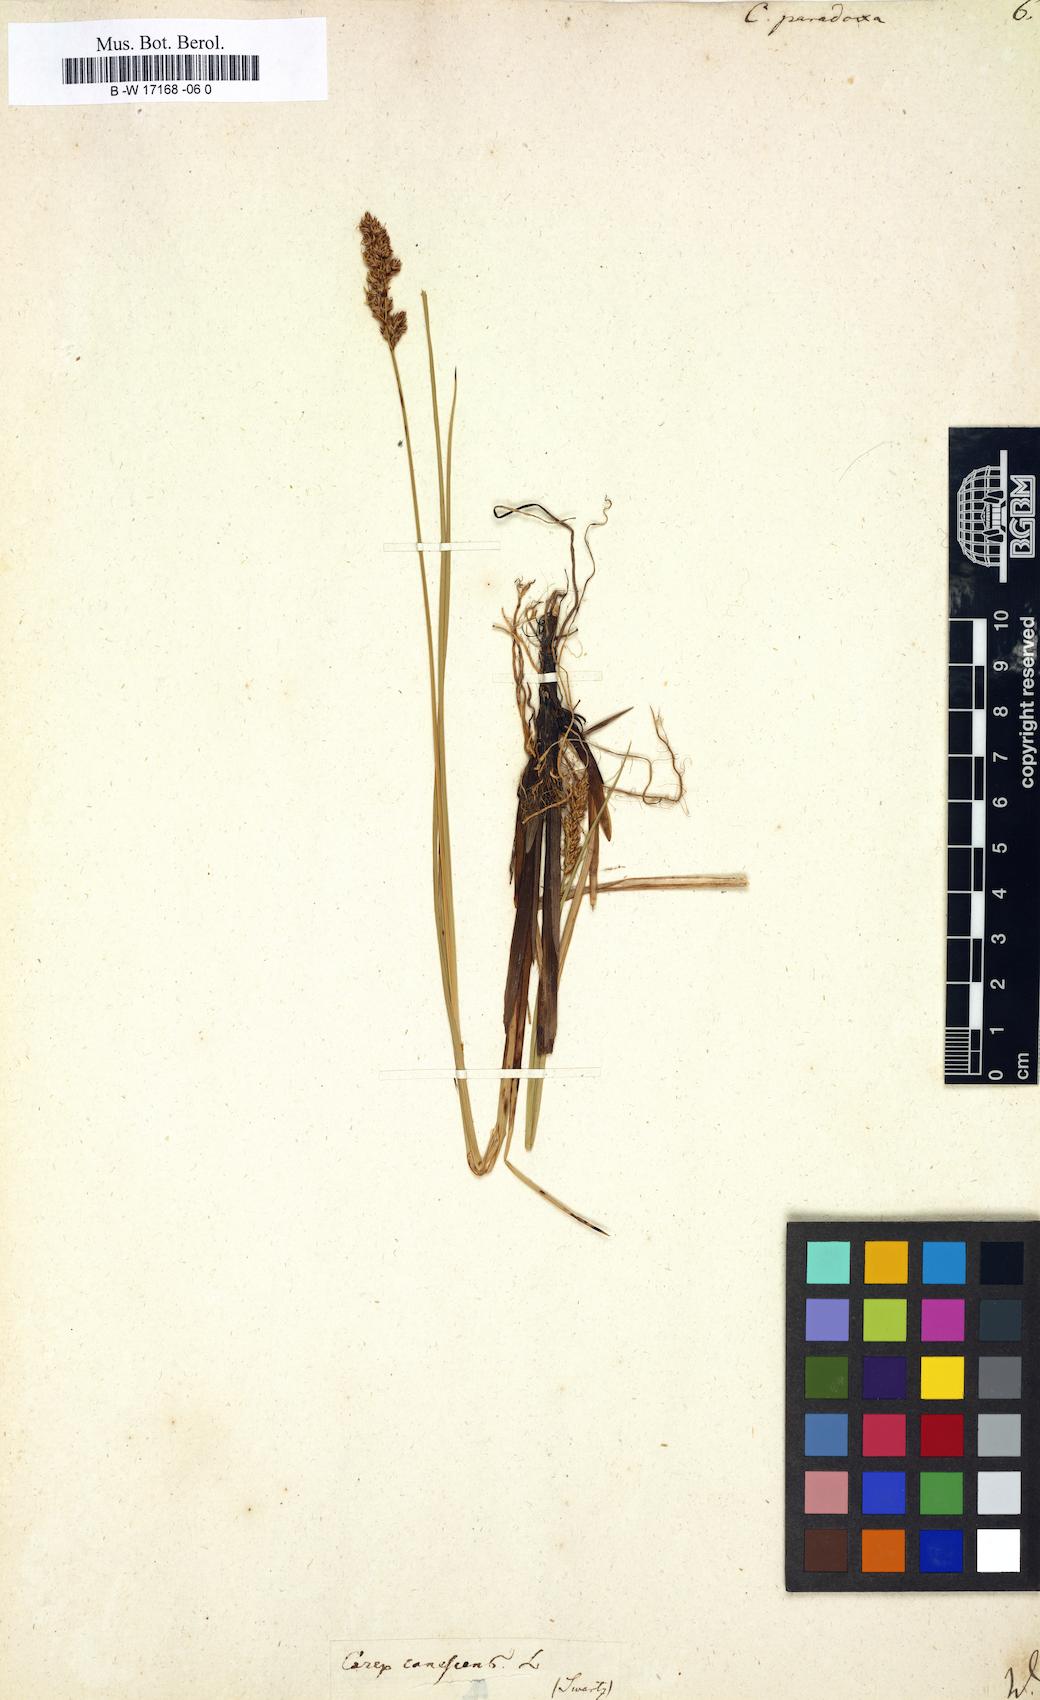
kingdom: Plantae
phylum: Tracheophyta
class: Liliopsida
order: Poales
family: Cyperaceae
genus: Carex
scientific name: Carex
